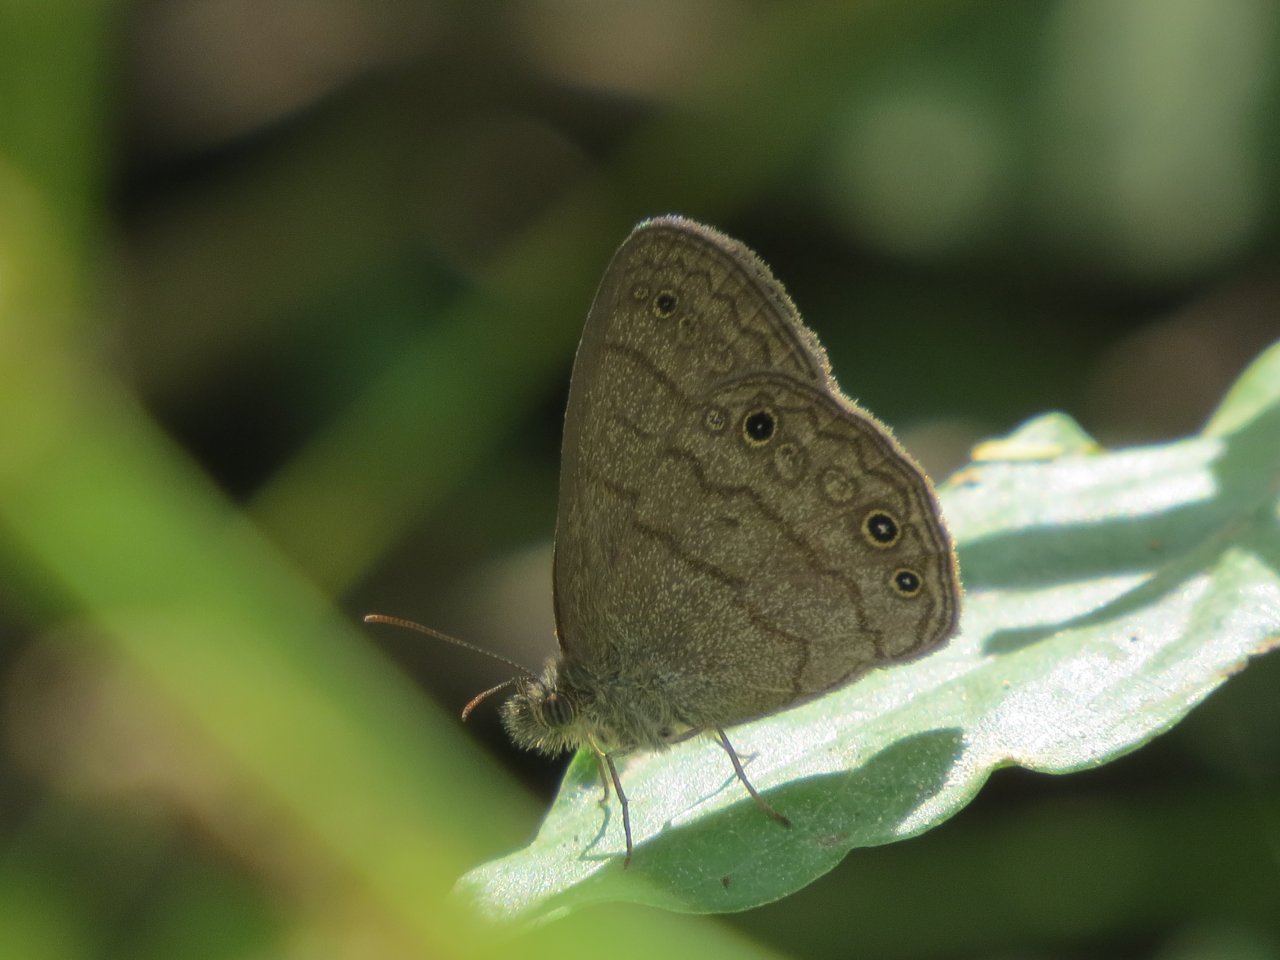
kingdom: Animalia
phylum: Arthropoda
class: Insecta
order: Lepidoptera
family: Nymphalidae
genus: Hermeuptychia
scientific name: Hermeuptychia hermes
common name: Carolina Satyr
